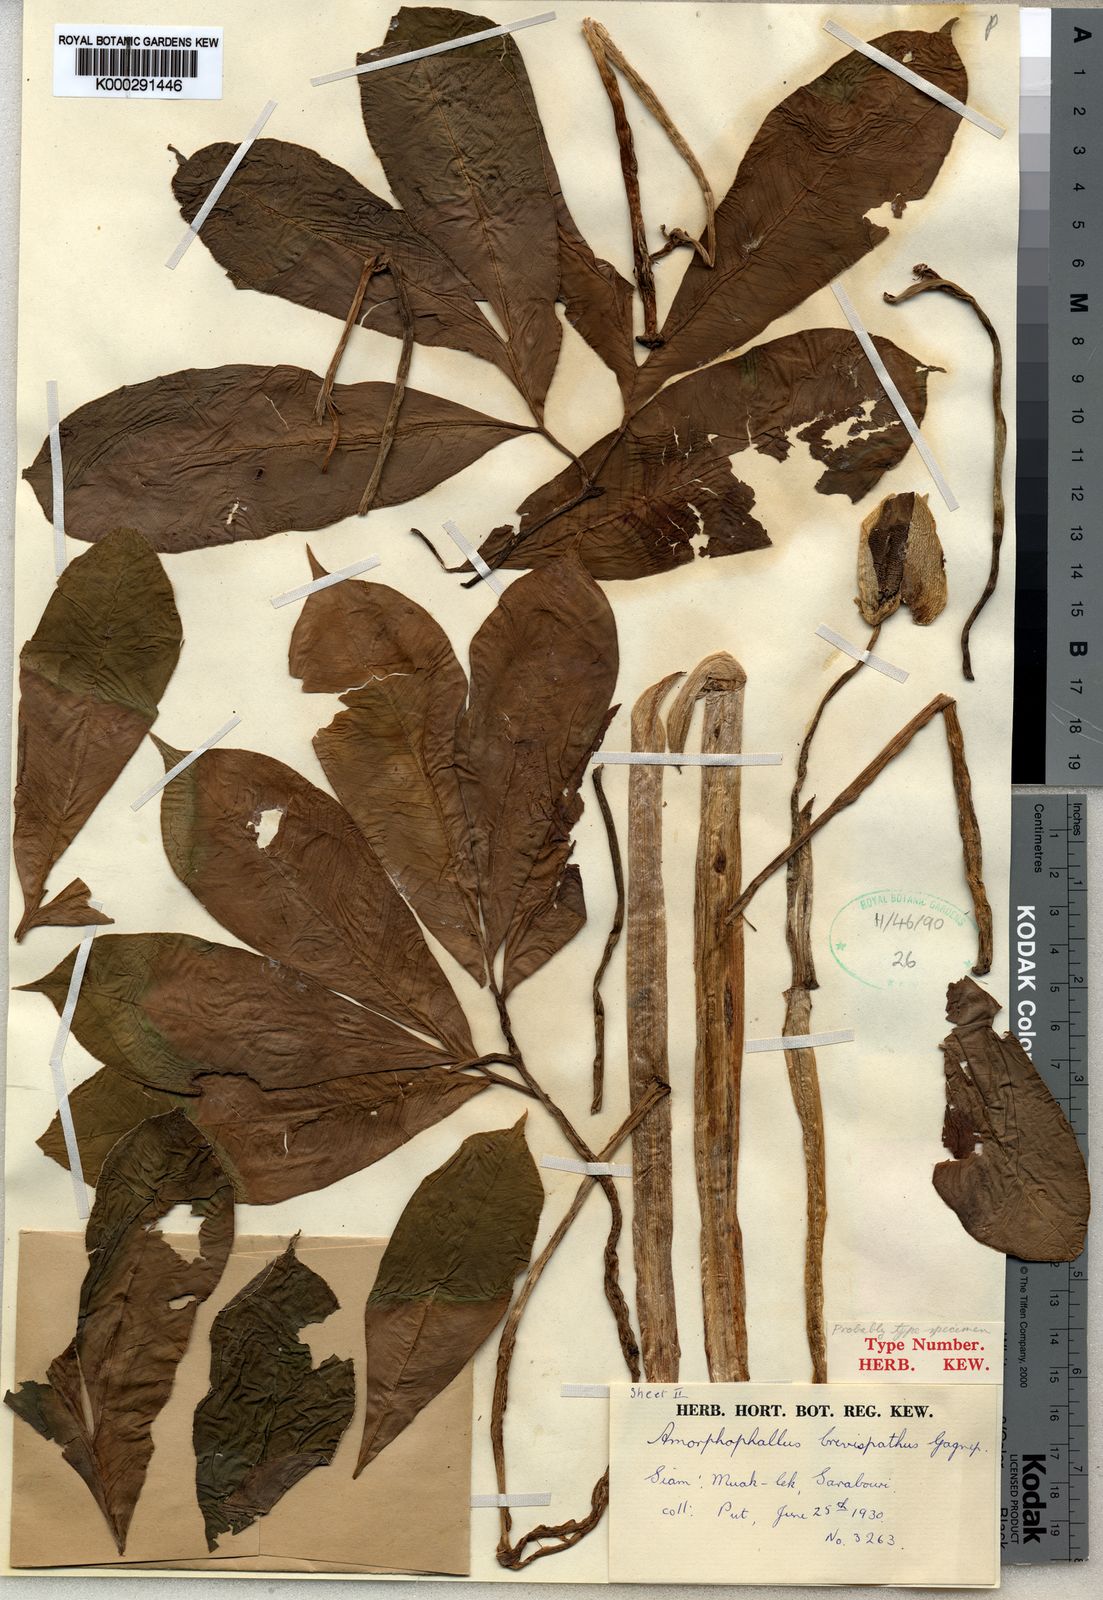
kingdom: Plantae
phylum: Tracheophyta
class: Liliopsida
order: Alismatales
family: Araceae
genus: Amorphophallus
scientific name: Amorphophallus brevispathus
